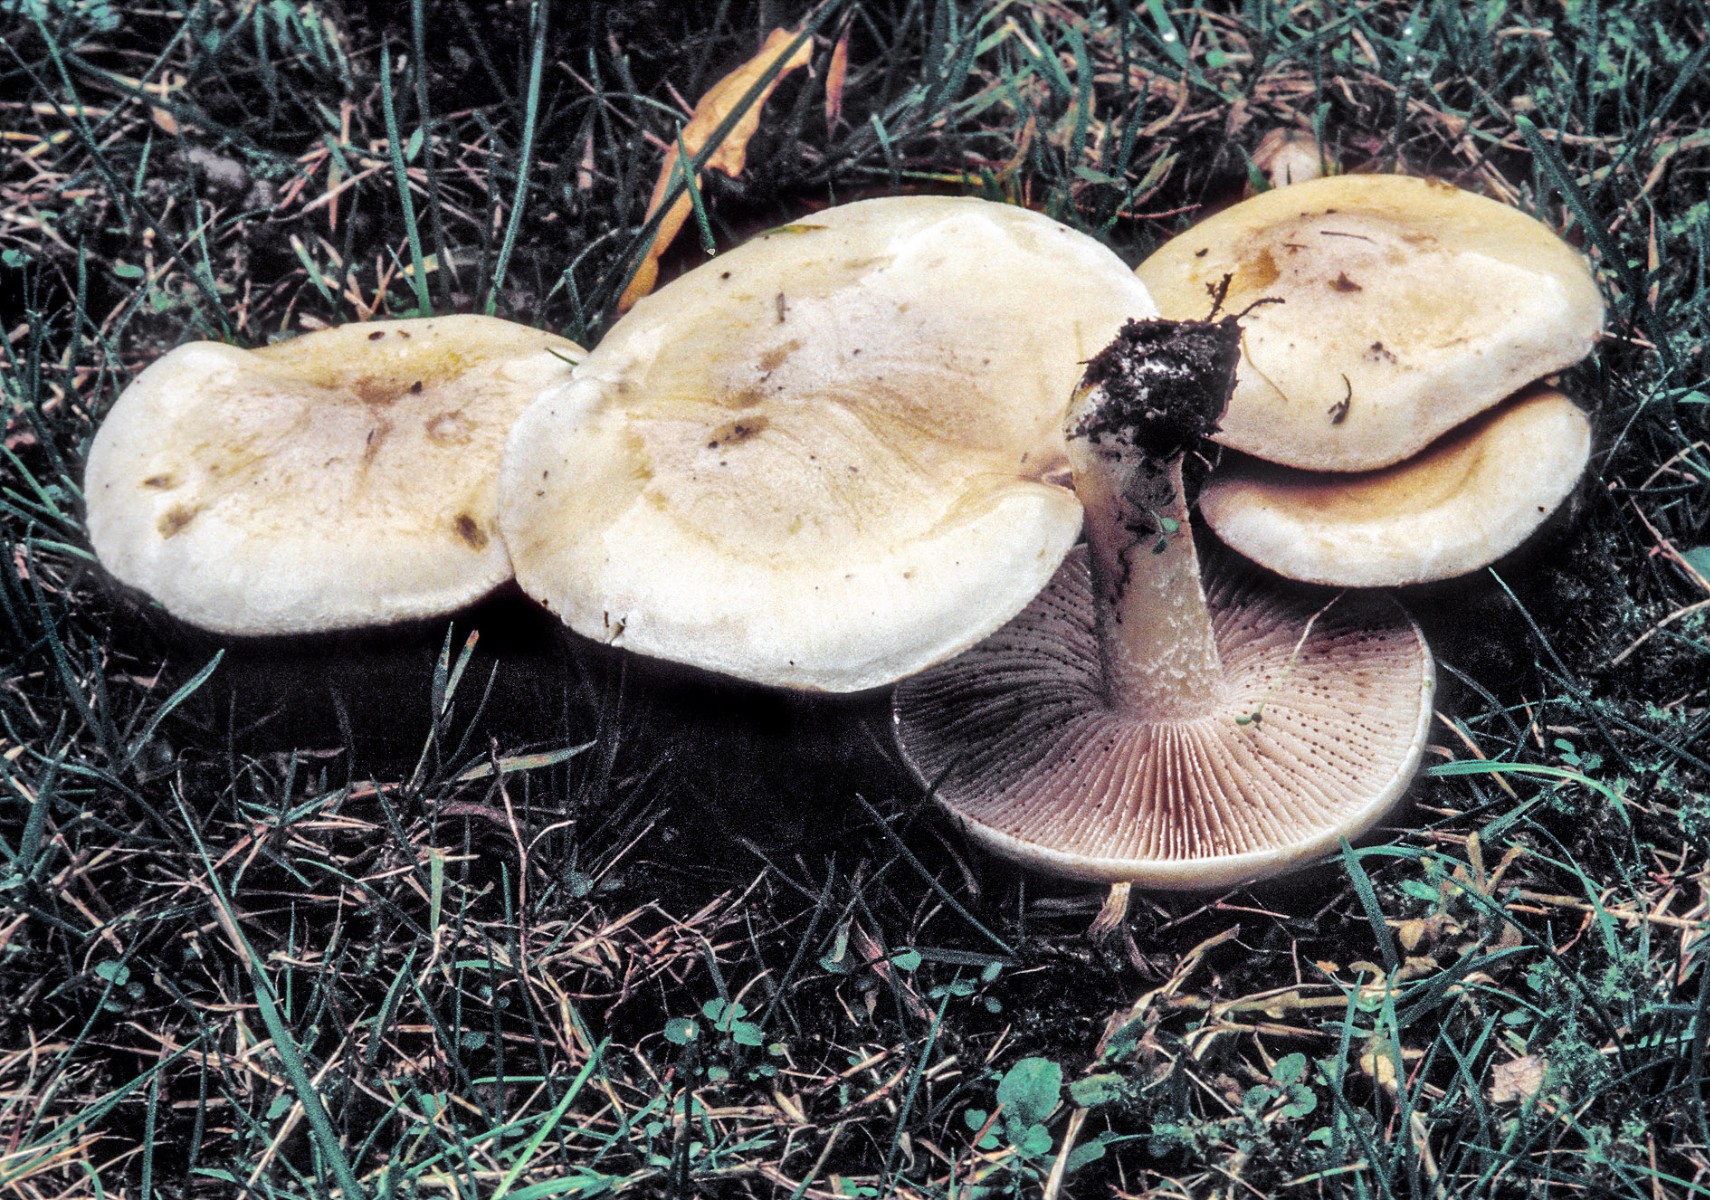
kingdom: Fungi
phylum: Basidiomycota
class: Agaricomycetes
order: Agaricales
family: Hymenogastraceae
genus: Hebeloma
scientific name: Hebeloma crustuliniforme
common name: almindelig tåreblad
